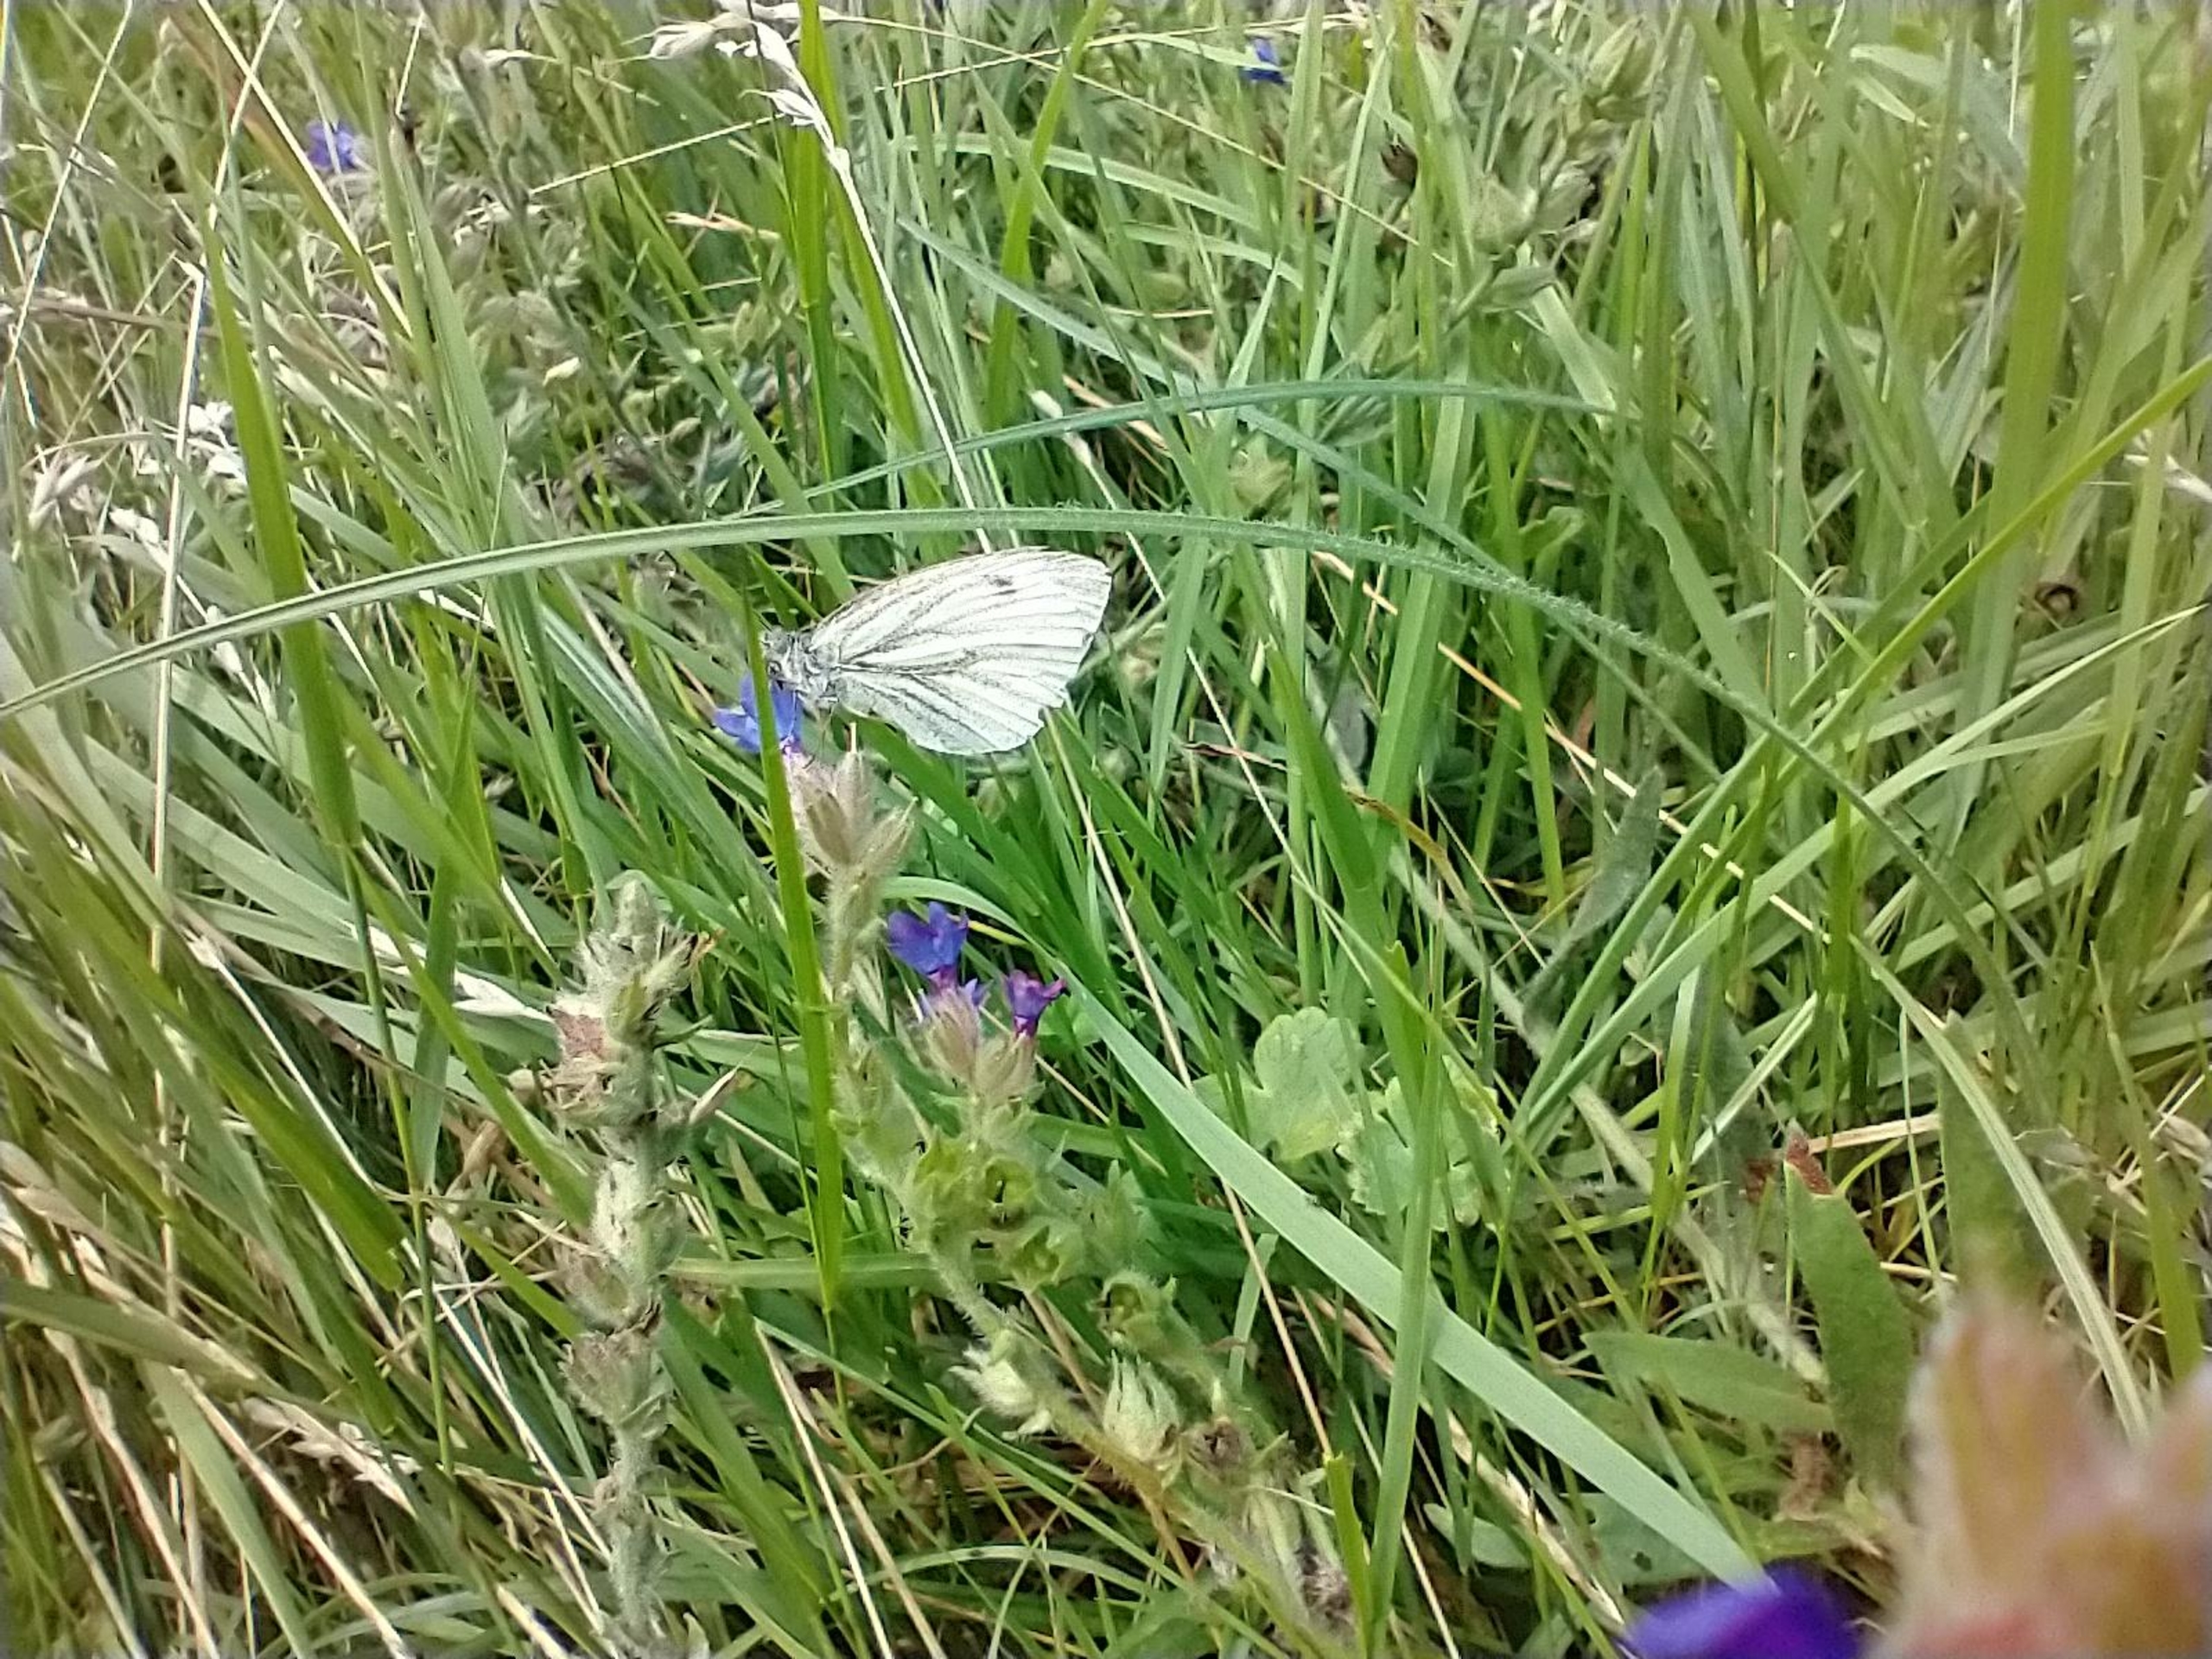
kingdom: Animalia
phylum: Arthropoda
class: Insecta
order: Lepidoptera
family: Pieridae
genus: Pieris
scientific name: Pieris napi
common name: Grønåret kålsommerfugl
